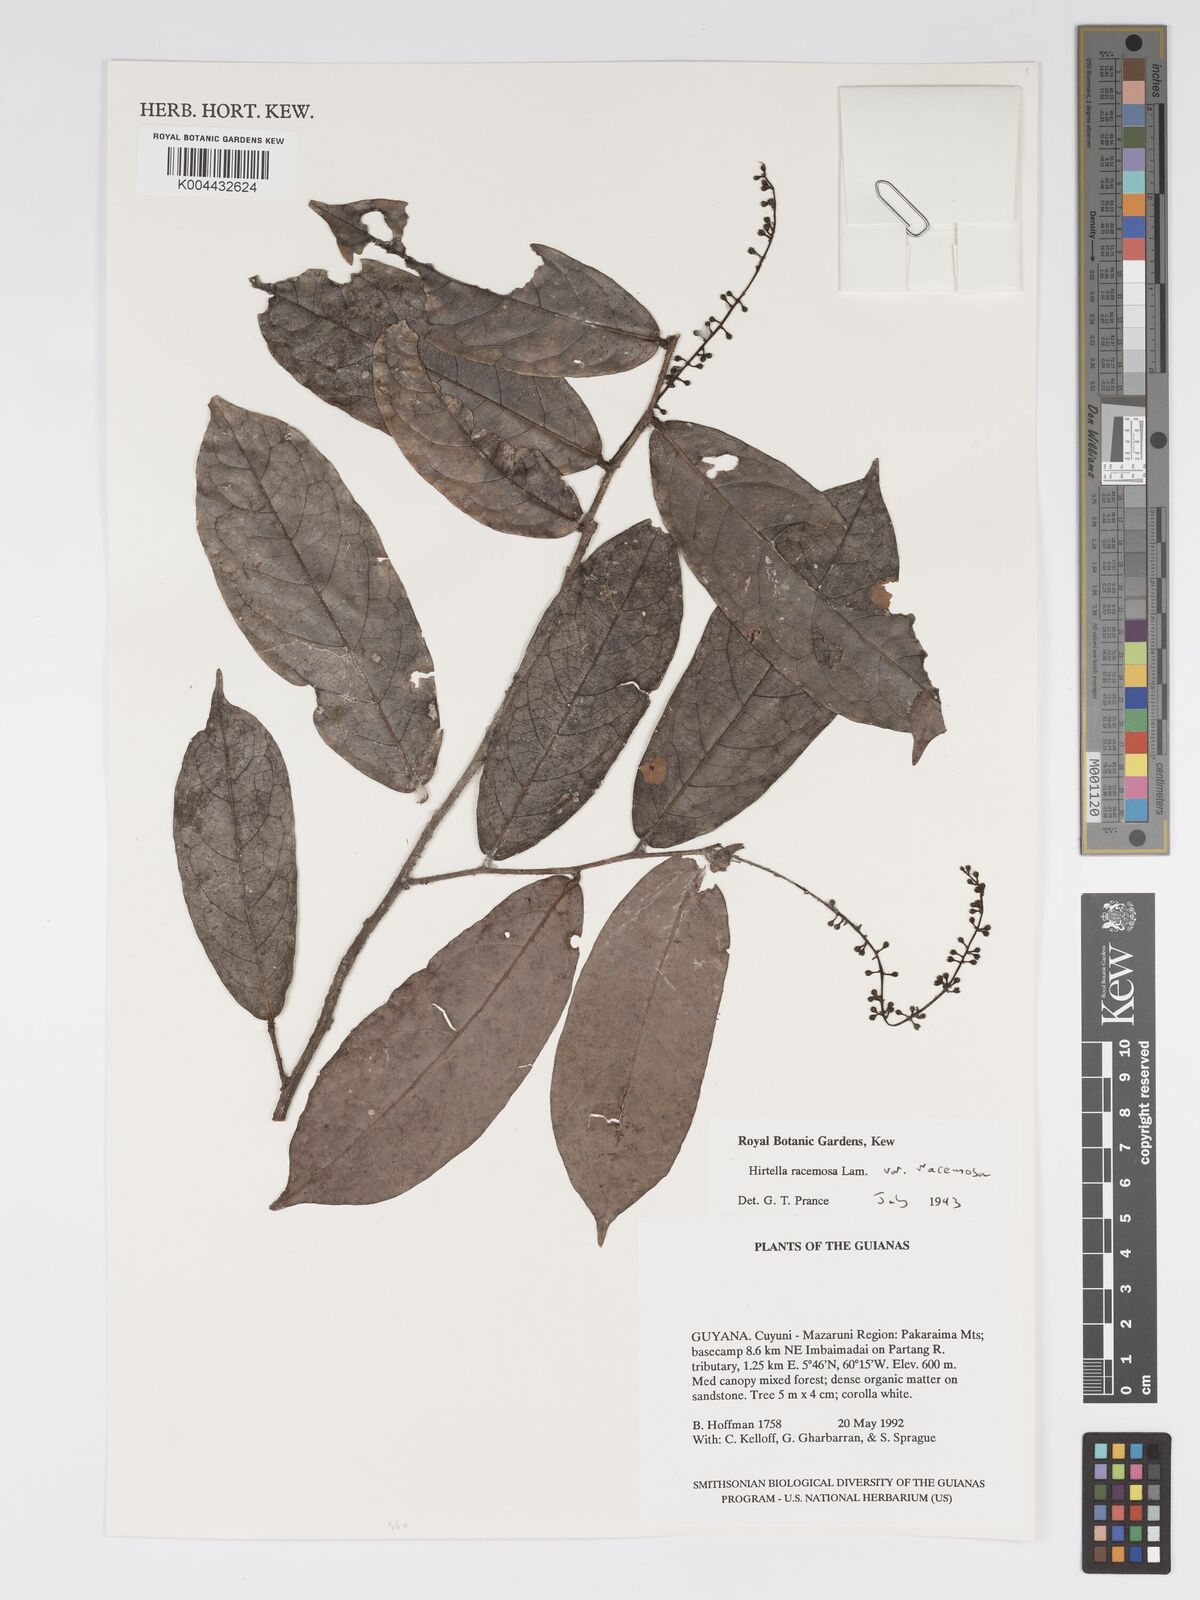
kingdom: Plantae
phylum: Tracheophyta
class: Magnoliopsida
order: Malpighiales
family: Chrysobalanaceae
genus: Hirtella
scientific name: Hirtella racemosa
